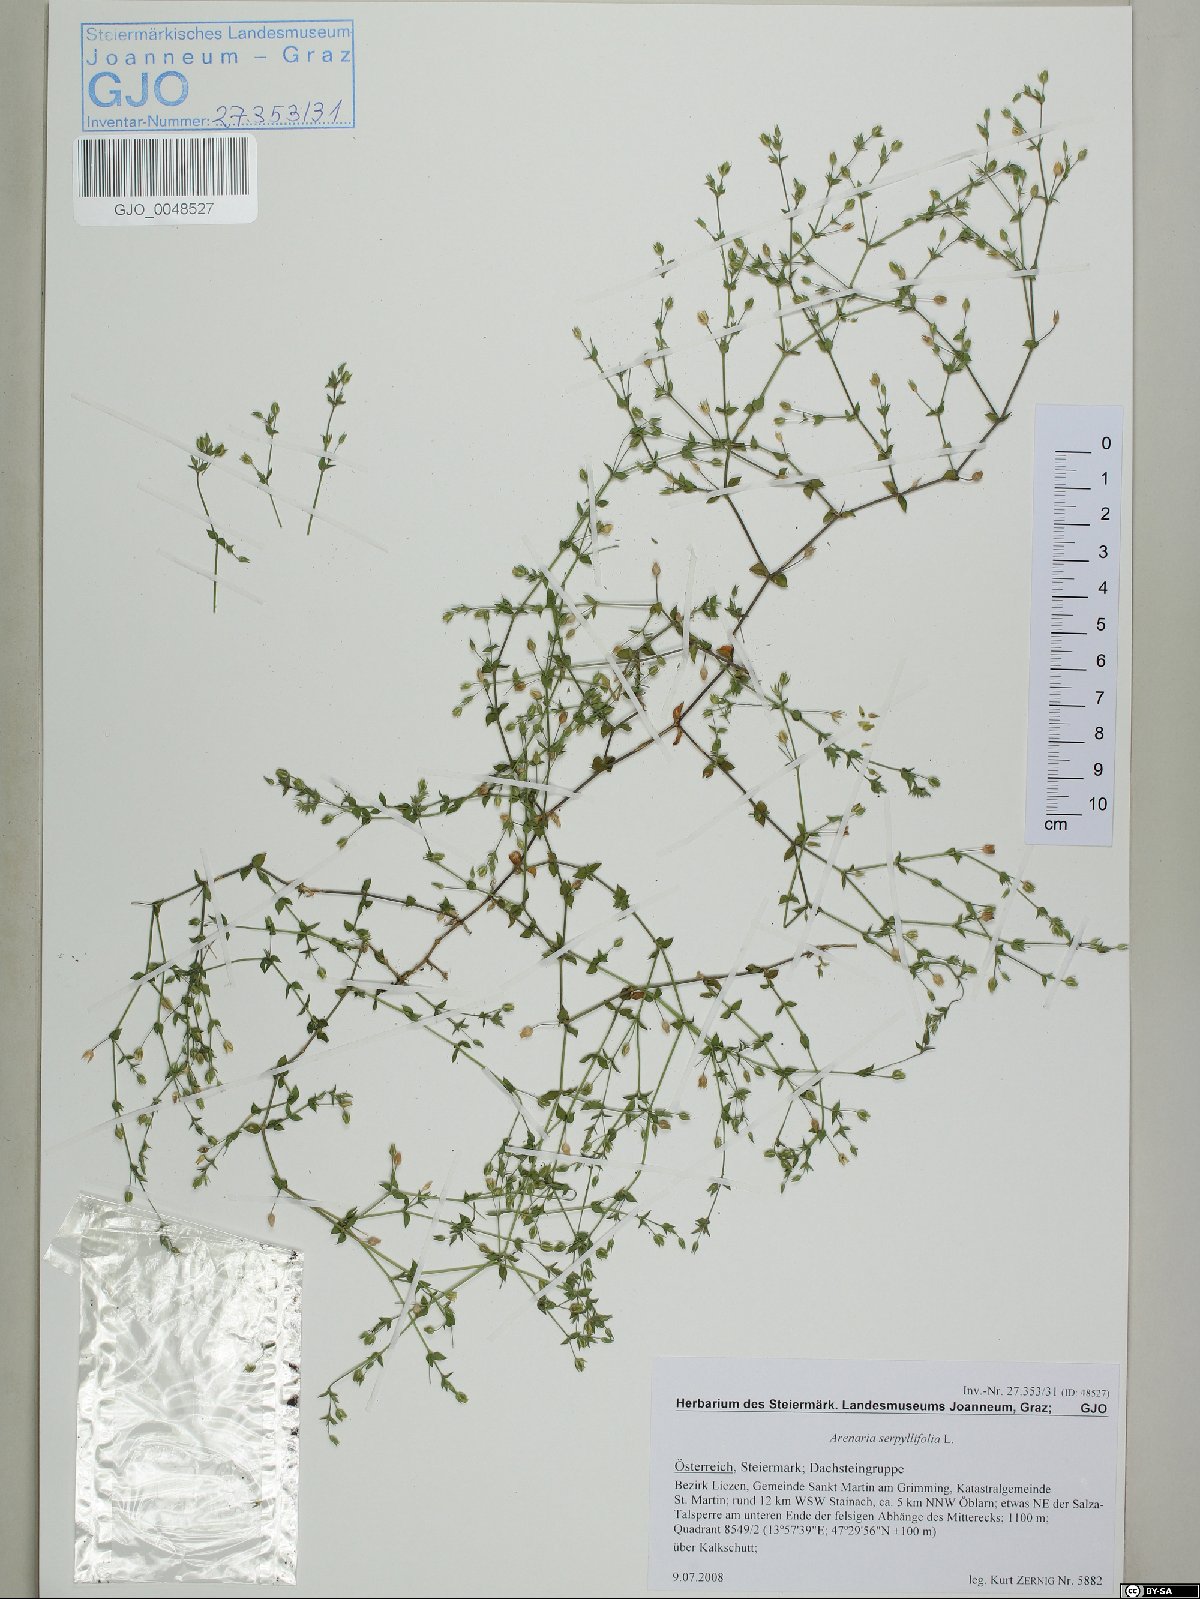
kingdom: Plantae
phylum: Tracheophyta
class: Magnoliopsida
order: Caryophyllales
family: Caryophyllaceae
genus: Arenaria
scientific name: Arenaria serpyllifolia
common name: Thyme-leaved sandwort
